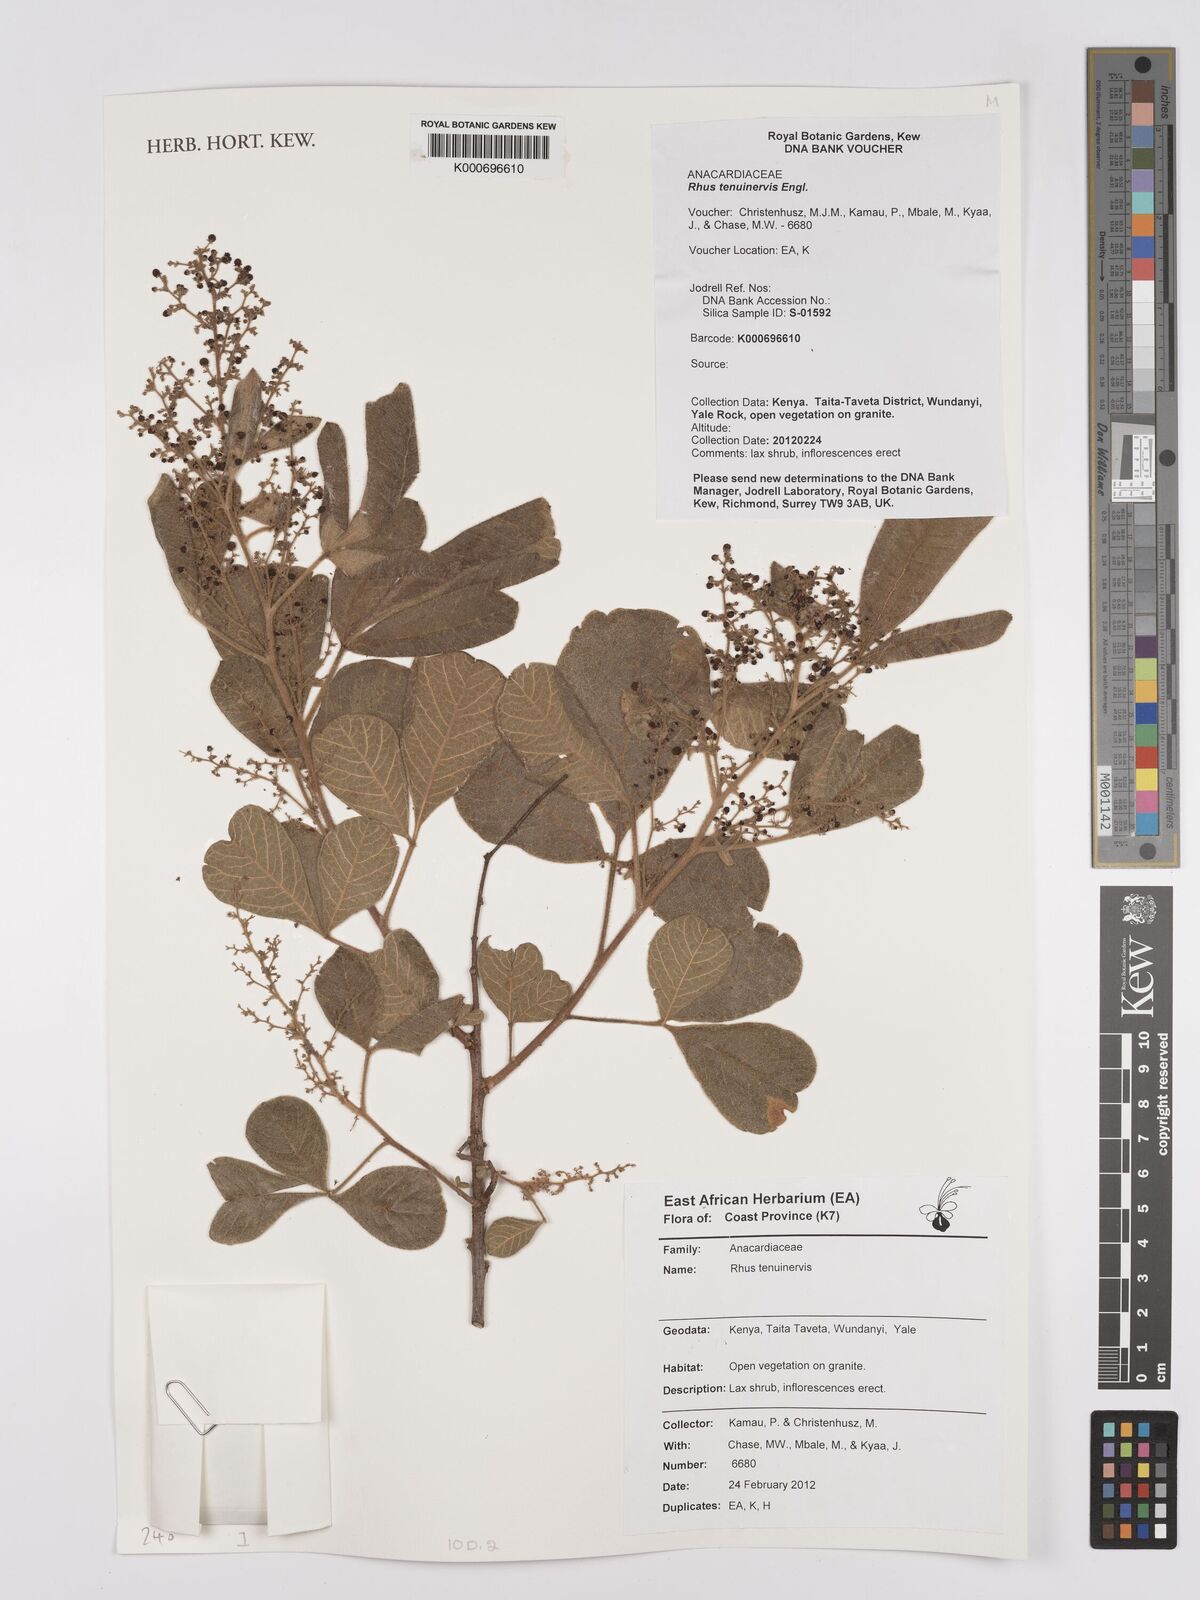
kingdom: Plantae
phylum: Tracheophyta
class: Magnoliopsida
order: Sapindales
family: Anacardiaceae
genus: Searsia
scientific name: Searsia tenuinervis
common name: Hyaena taaibos
